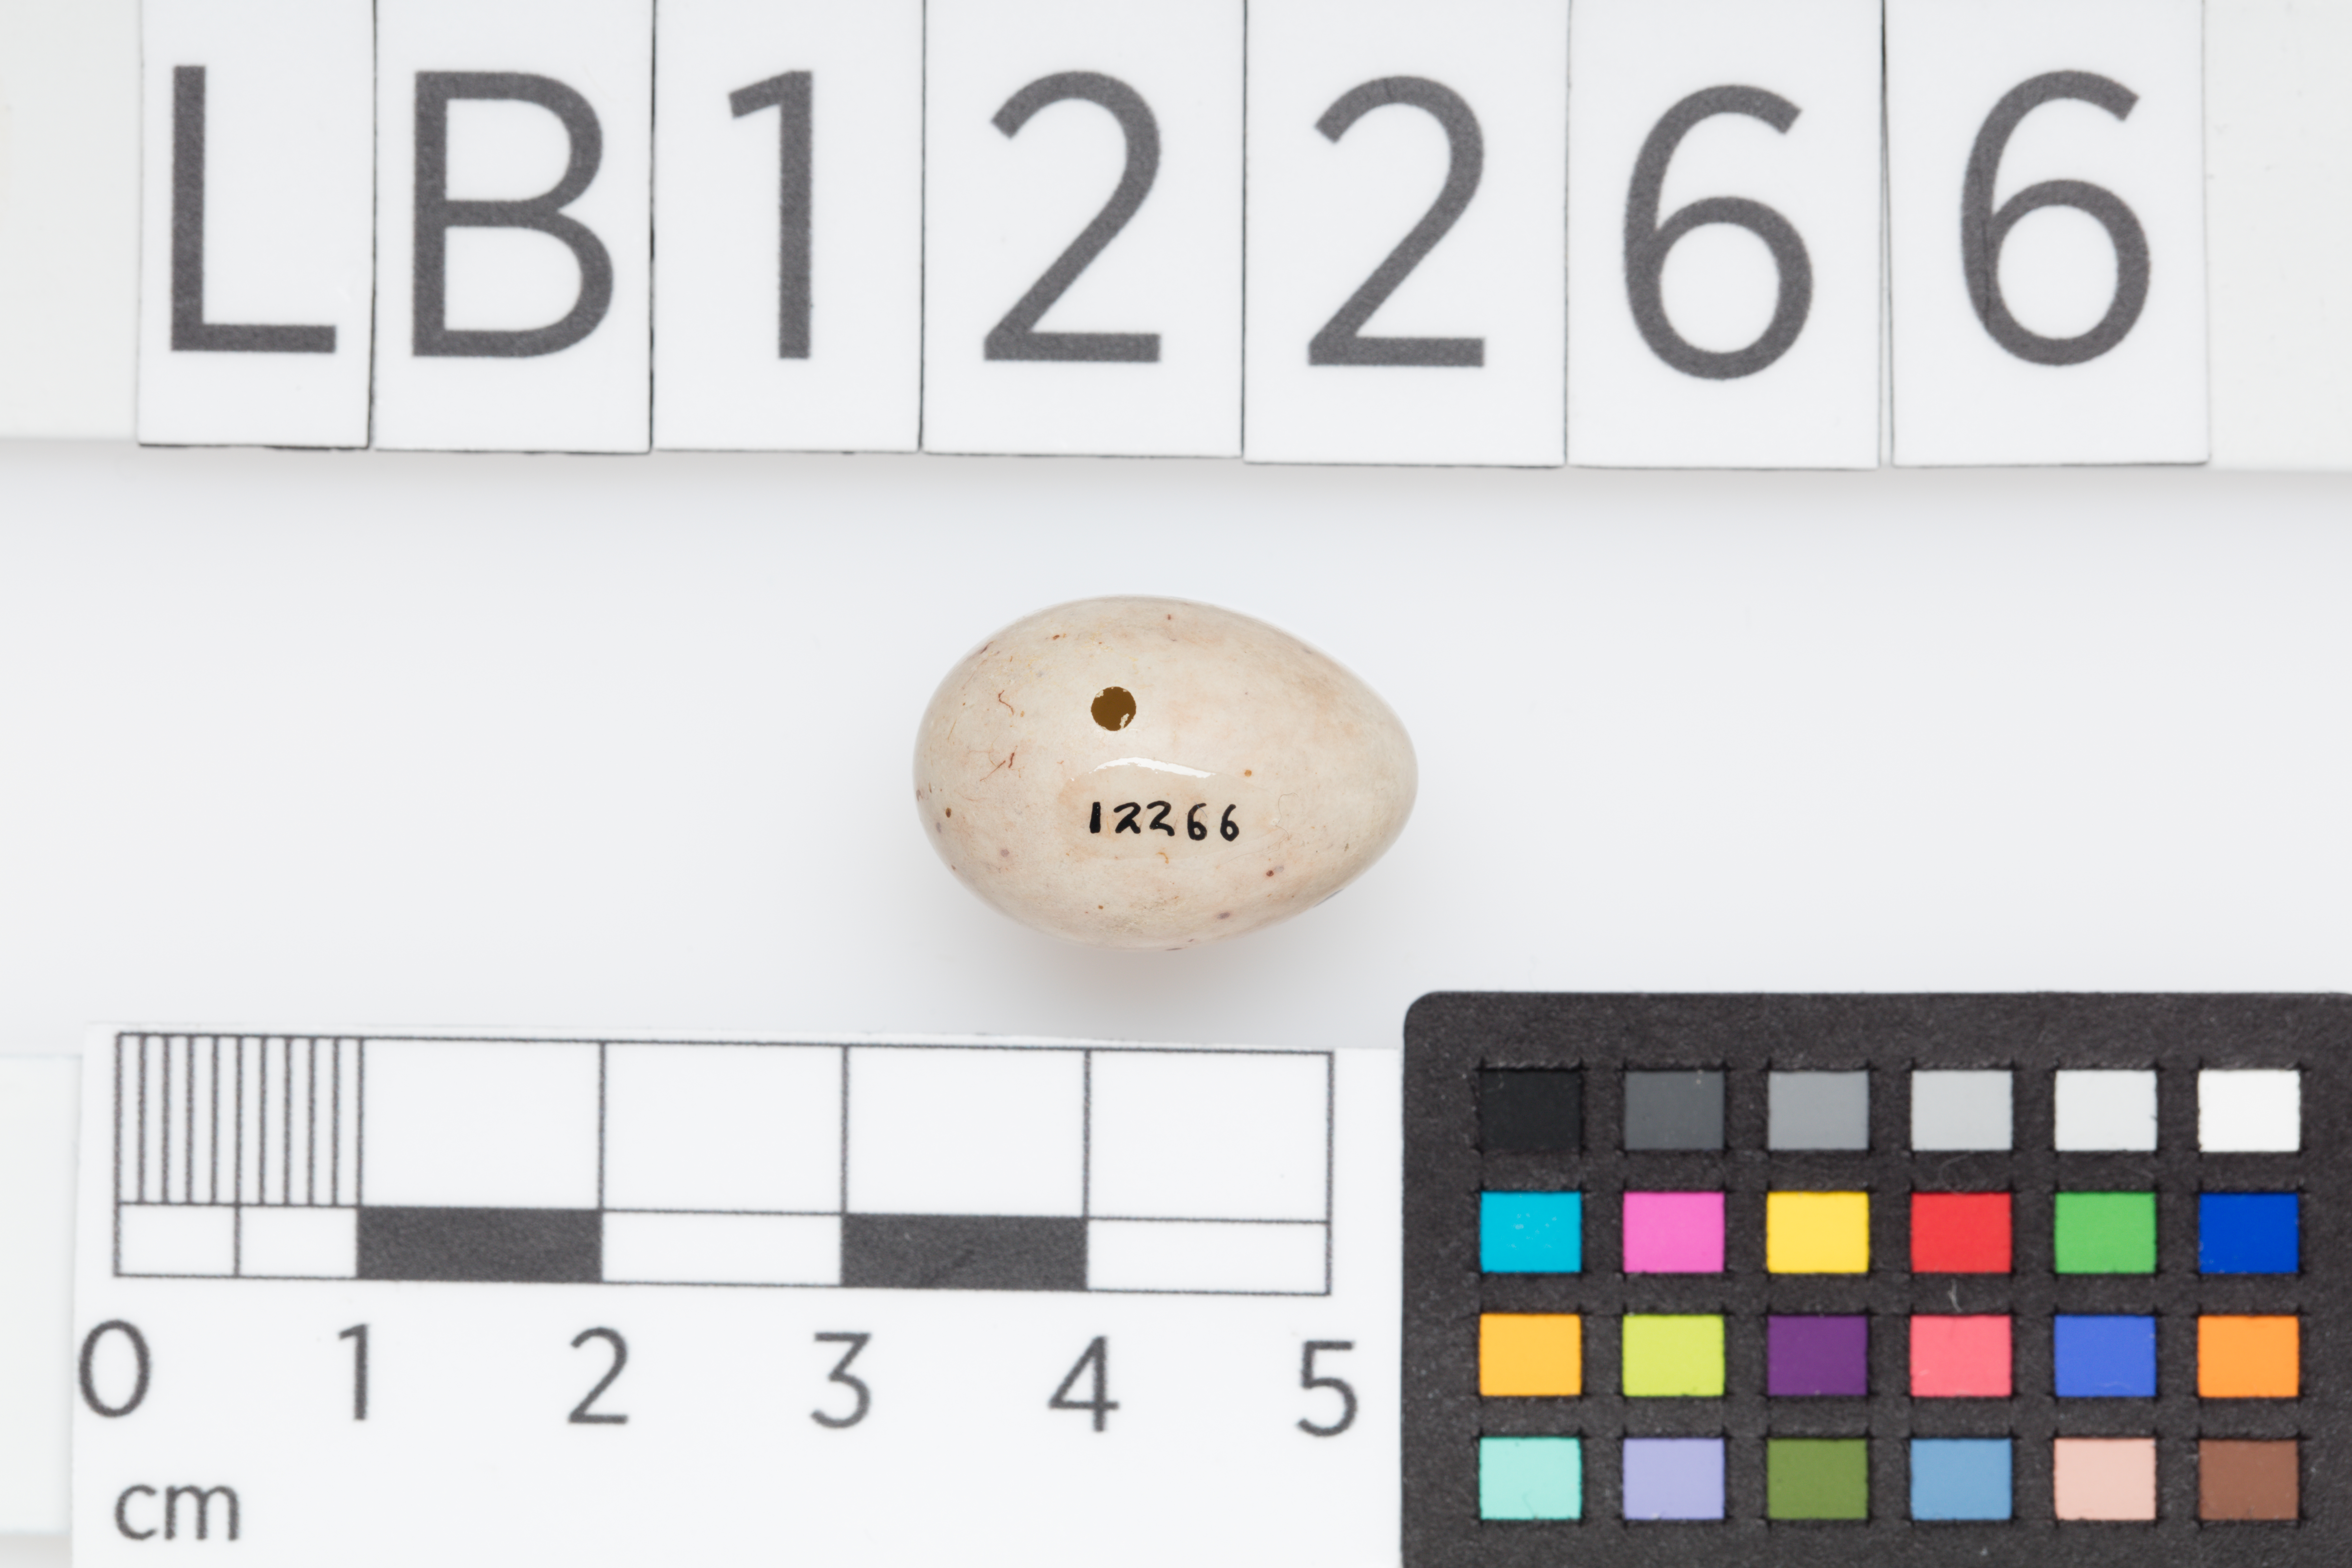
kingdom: Animalia
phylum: Chordata
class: Aves
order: Passeriformes
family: Fringillidae
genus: Fringilla
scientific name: Fringilla coelebs
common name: Common chaffinch
